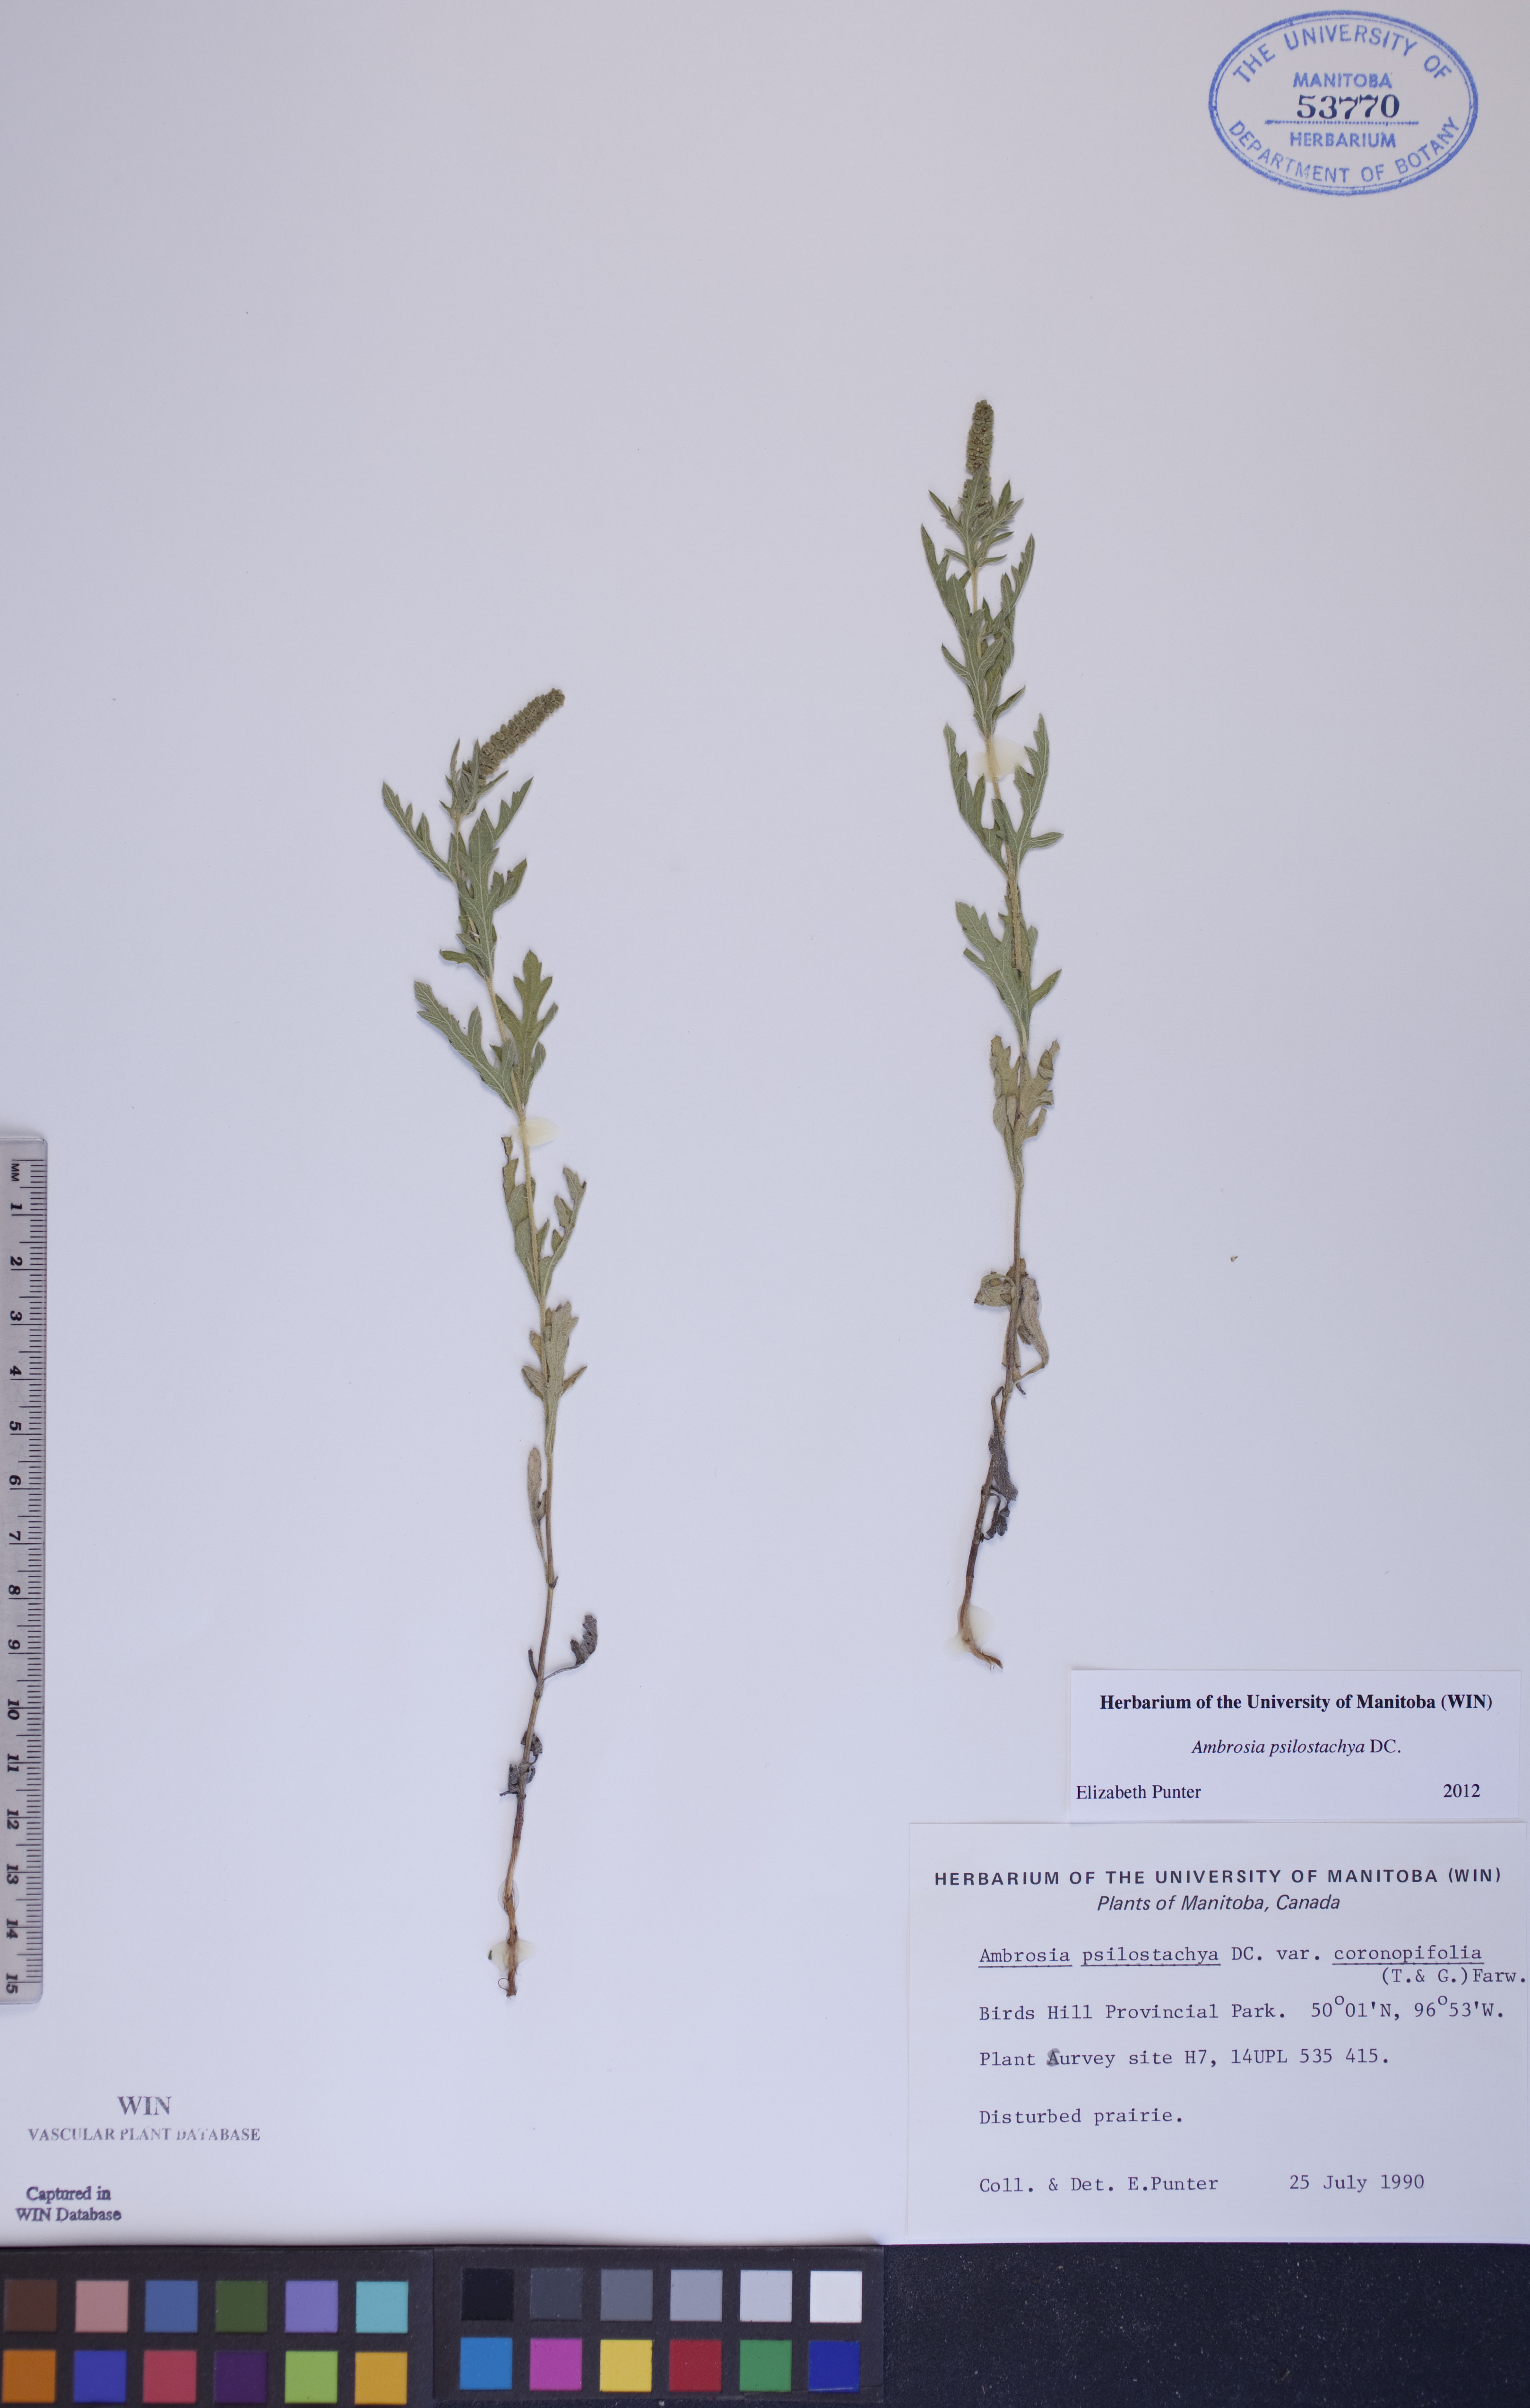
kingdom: Plantae
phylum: Tracheophyta
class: Magnoliopsida
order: Asterales
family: Asteraceae
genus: Ambrosia
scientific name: Ambrosia psilostachya
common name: Perennial ragweed
